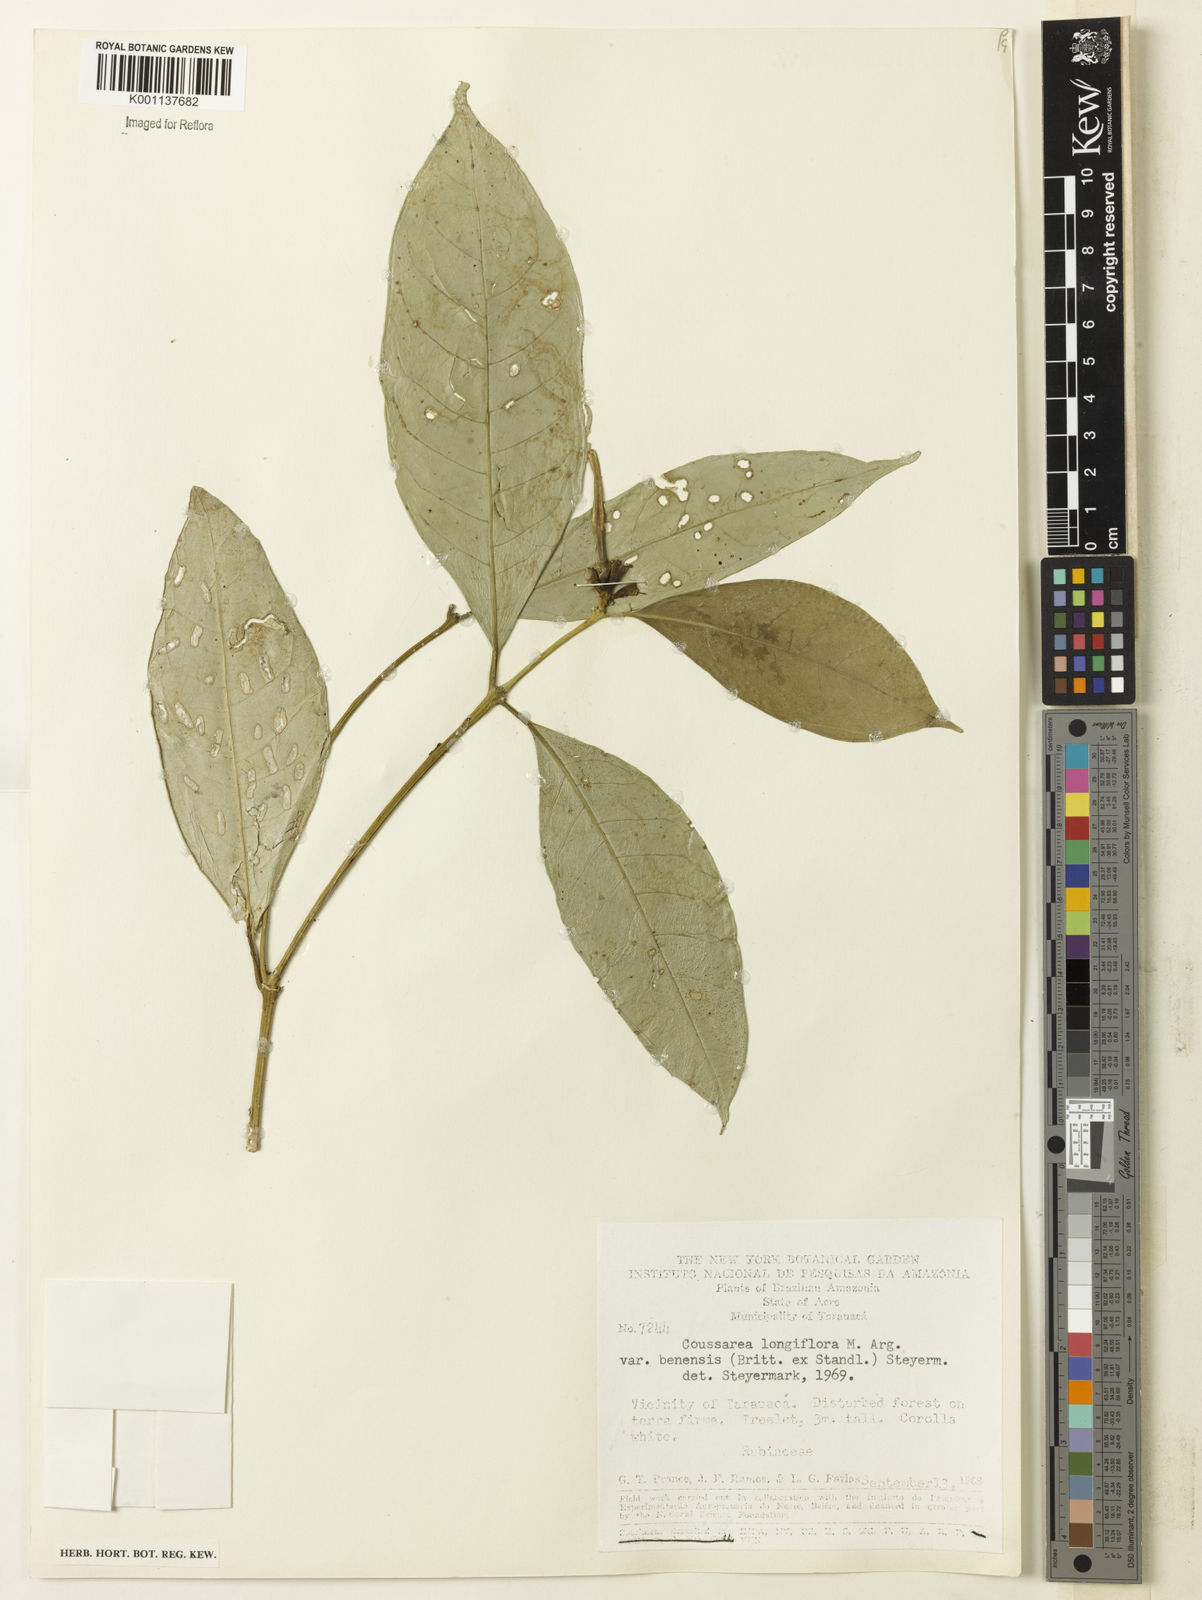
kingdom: Plantae
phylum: Tracheophyta
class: Magnoliopsida
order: Gentianales
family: Rubiaceae
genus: Coussarea
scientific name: Coussarea
